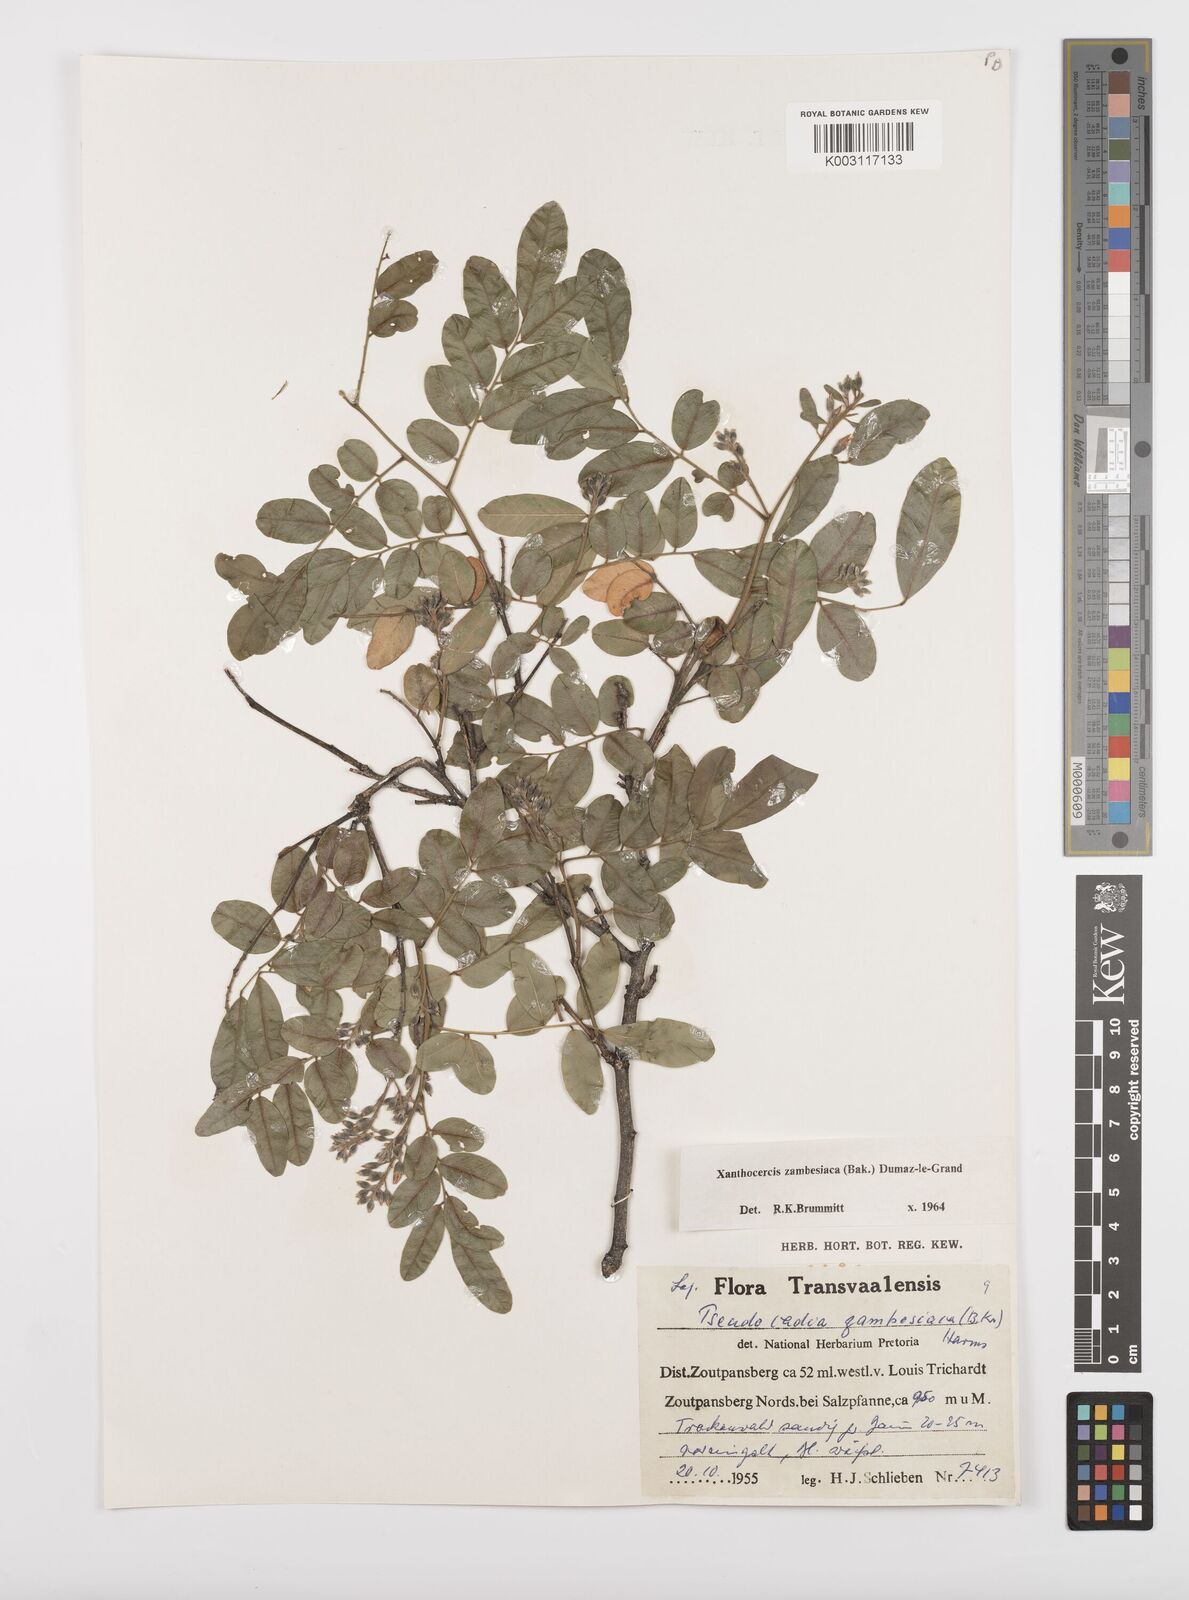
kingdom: Plantae
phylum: Tracheophyta
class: Magnoliopsida
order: Fabales
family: Fabaceae
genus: Xanthocercis
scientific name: Xanthocercis zambesiaca
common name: Nyala-tree
